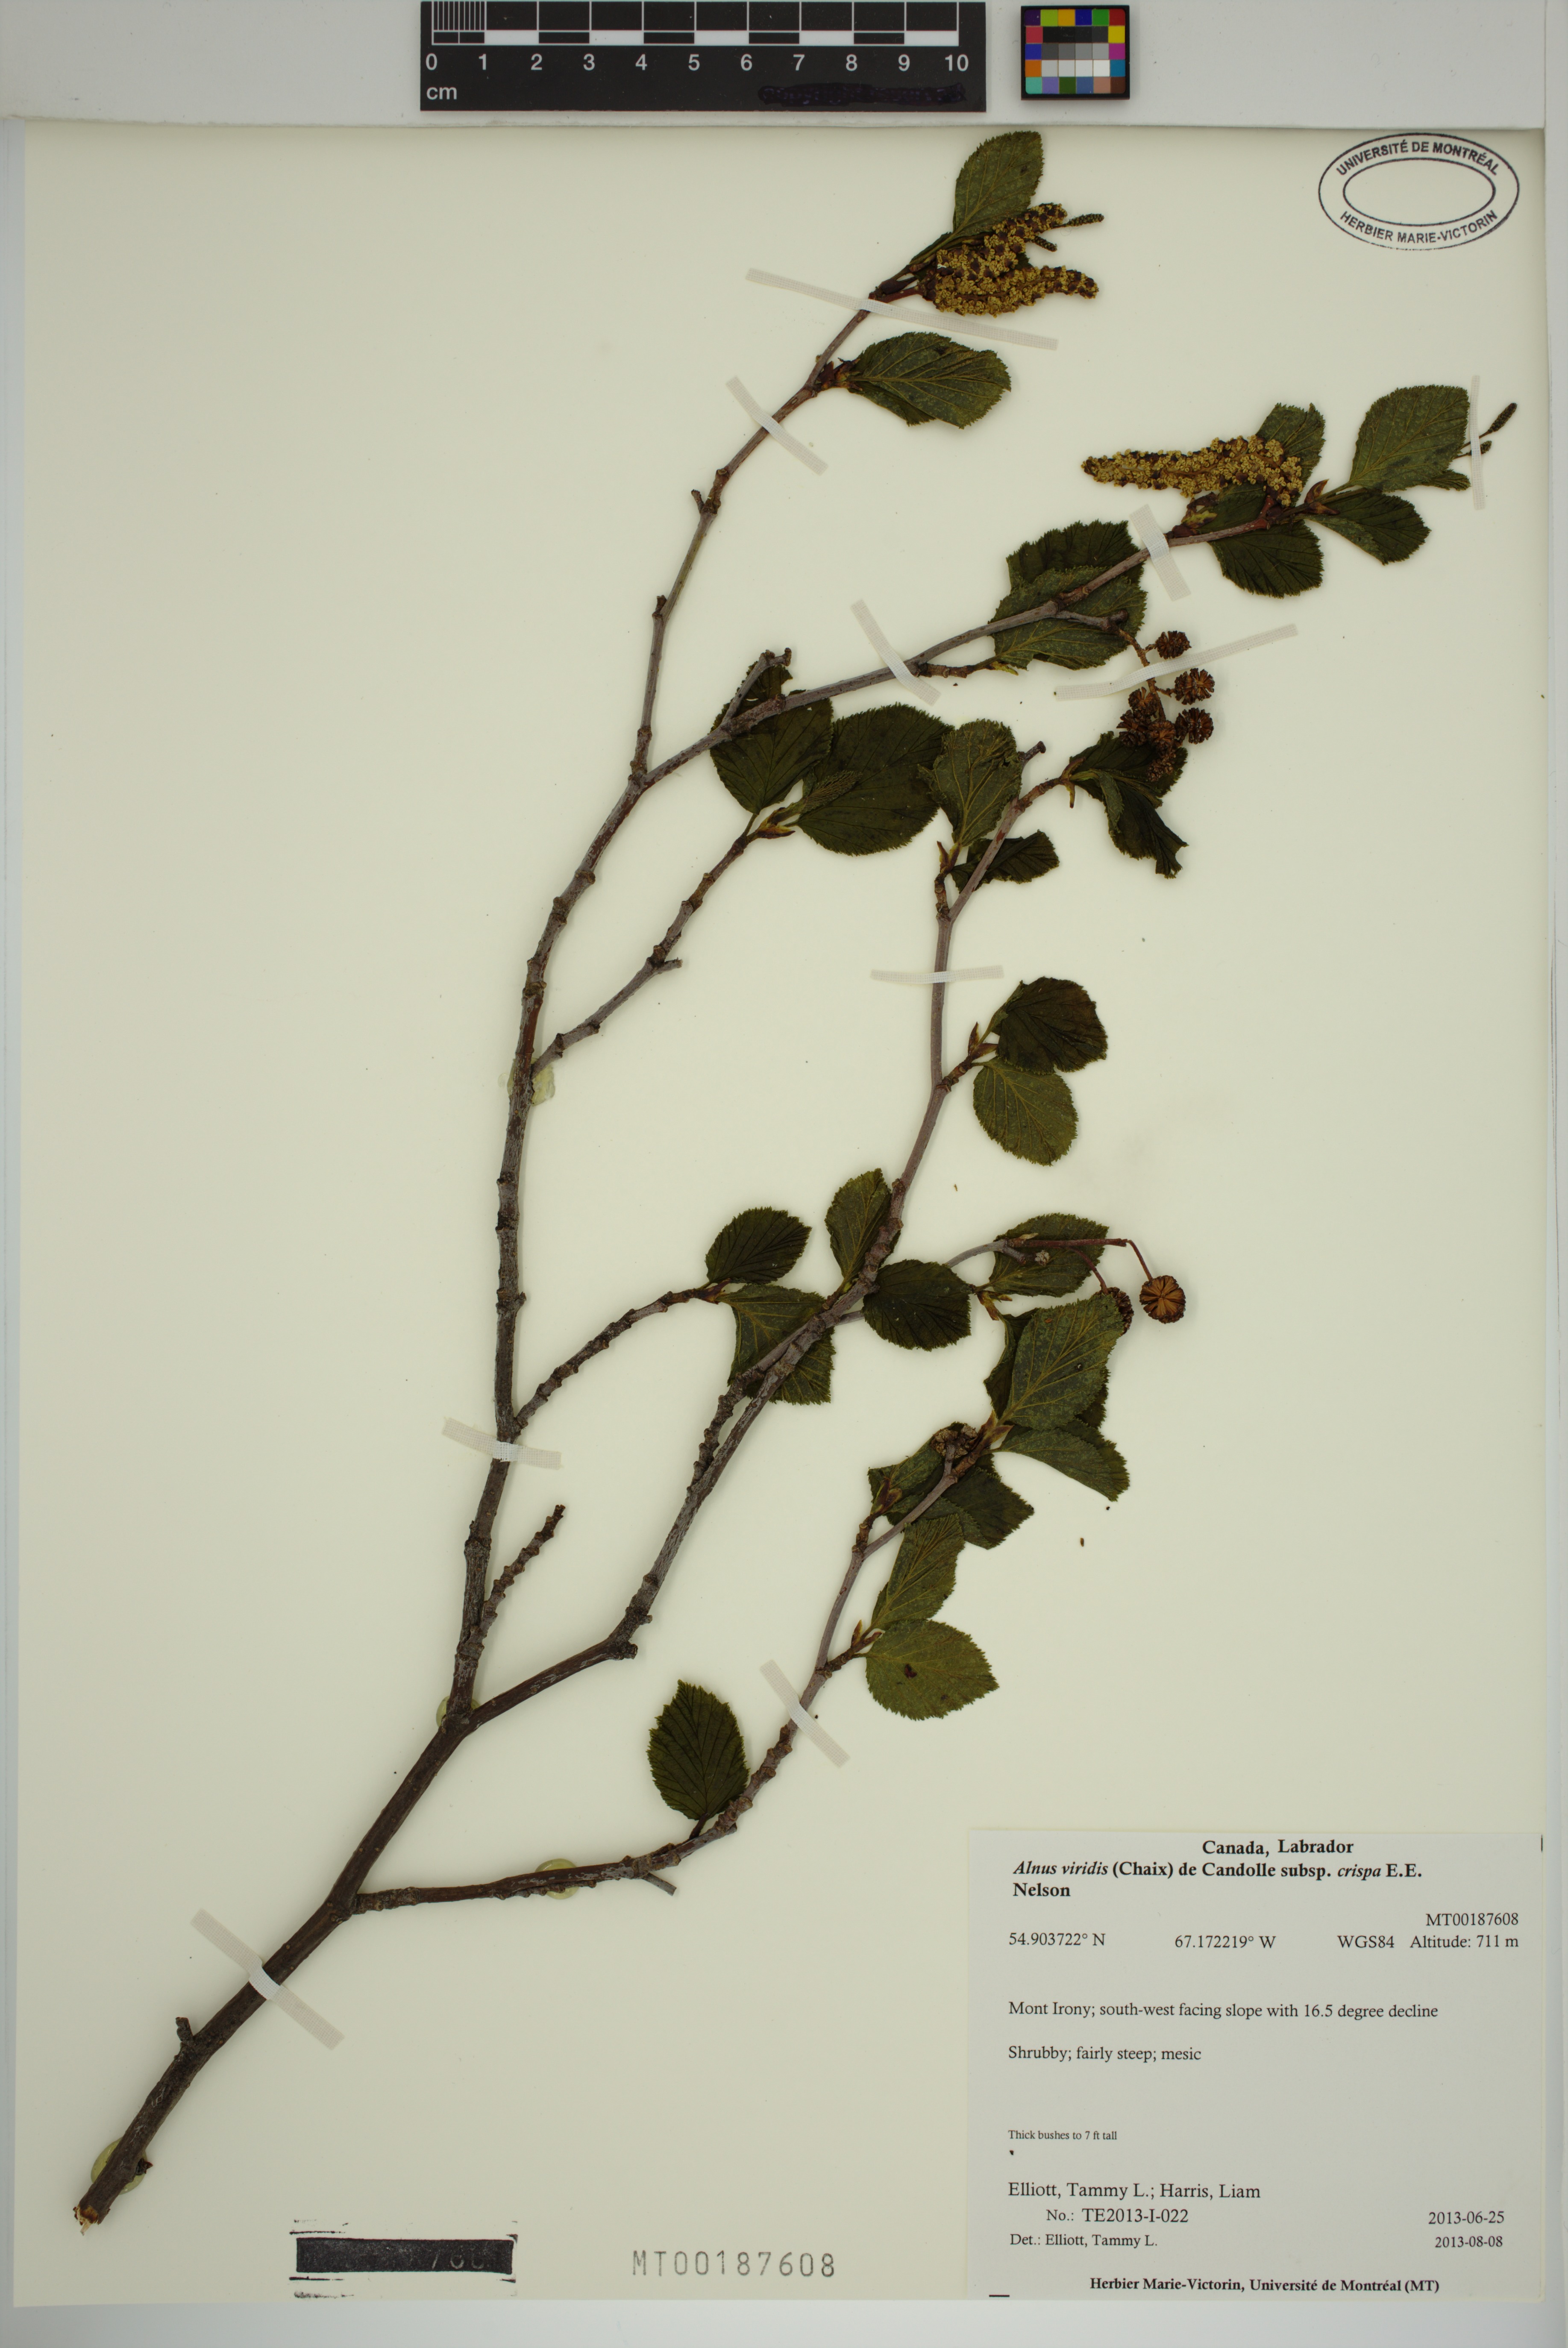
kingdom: Plantae
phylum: Tracheophyta
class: Magnoliopsida
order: Fagales
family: Betulaceae
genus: Alnus
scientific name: Alnus alnobetula
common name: Green alder
